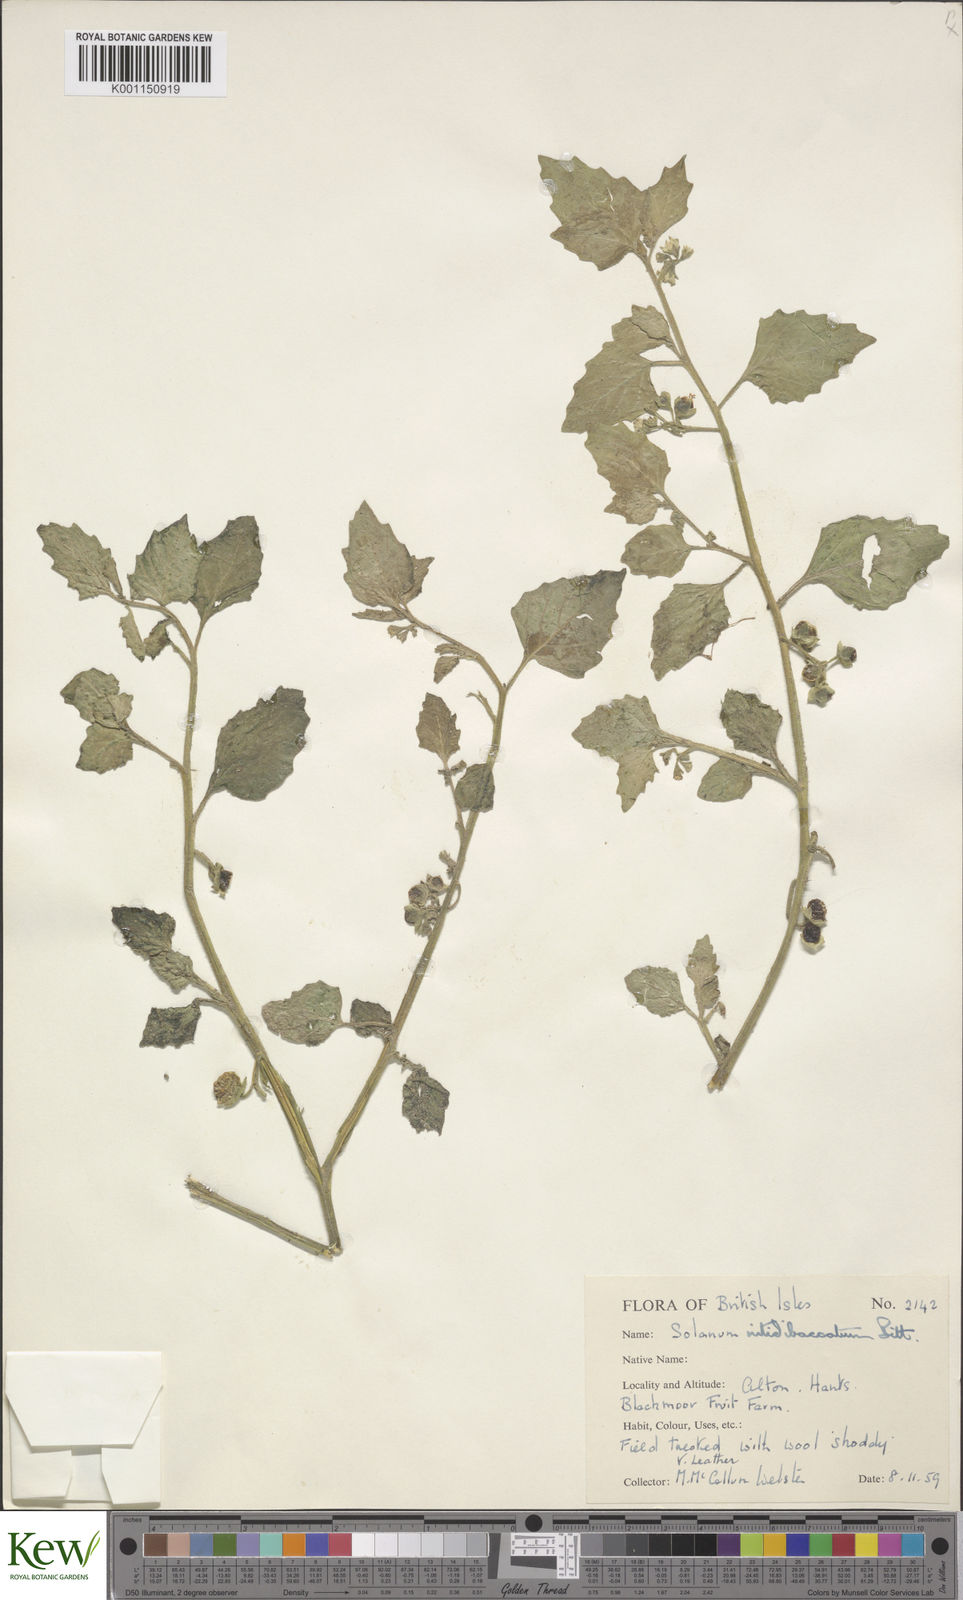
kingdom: Plantae
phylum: Tracheophyta
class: Magnoliopsida
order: Solanales
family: Solanaceae
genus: Solanum
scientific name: Solanum nitidibaccatum
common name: Hairy nightshade
